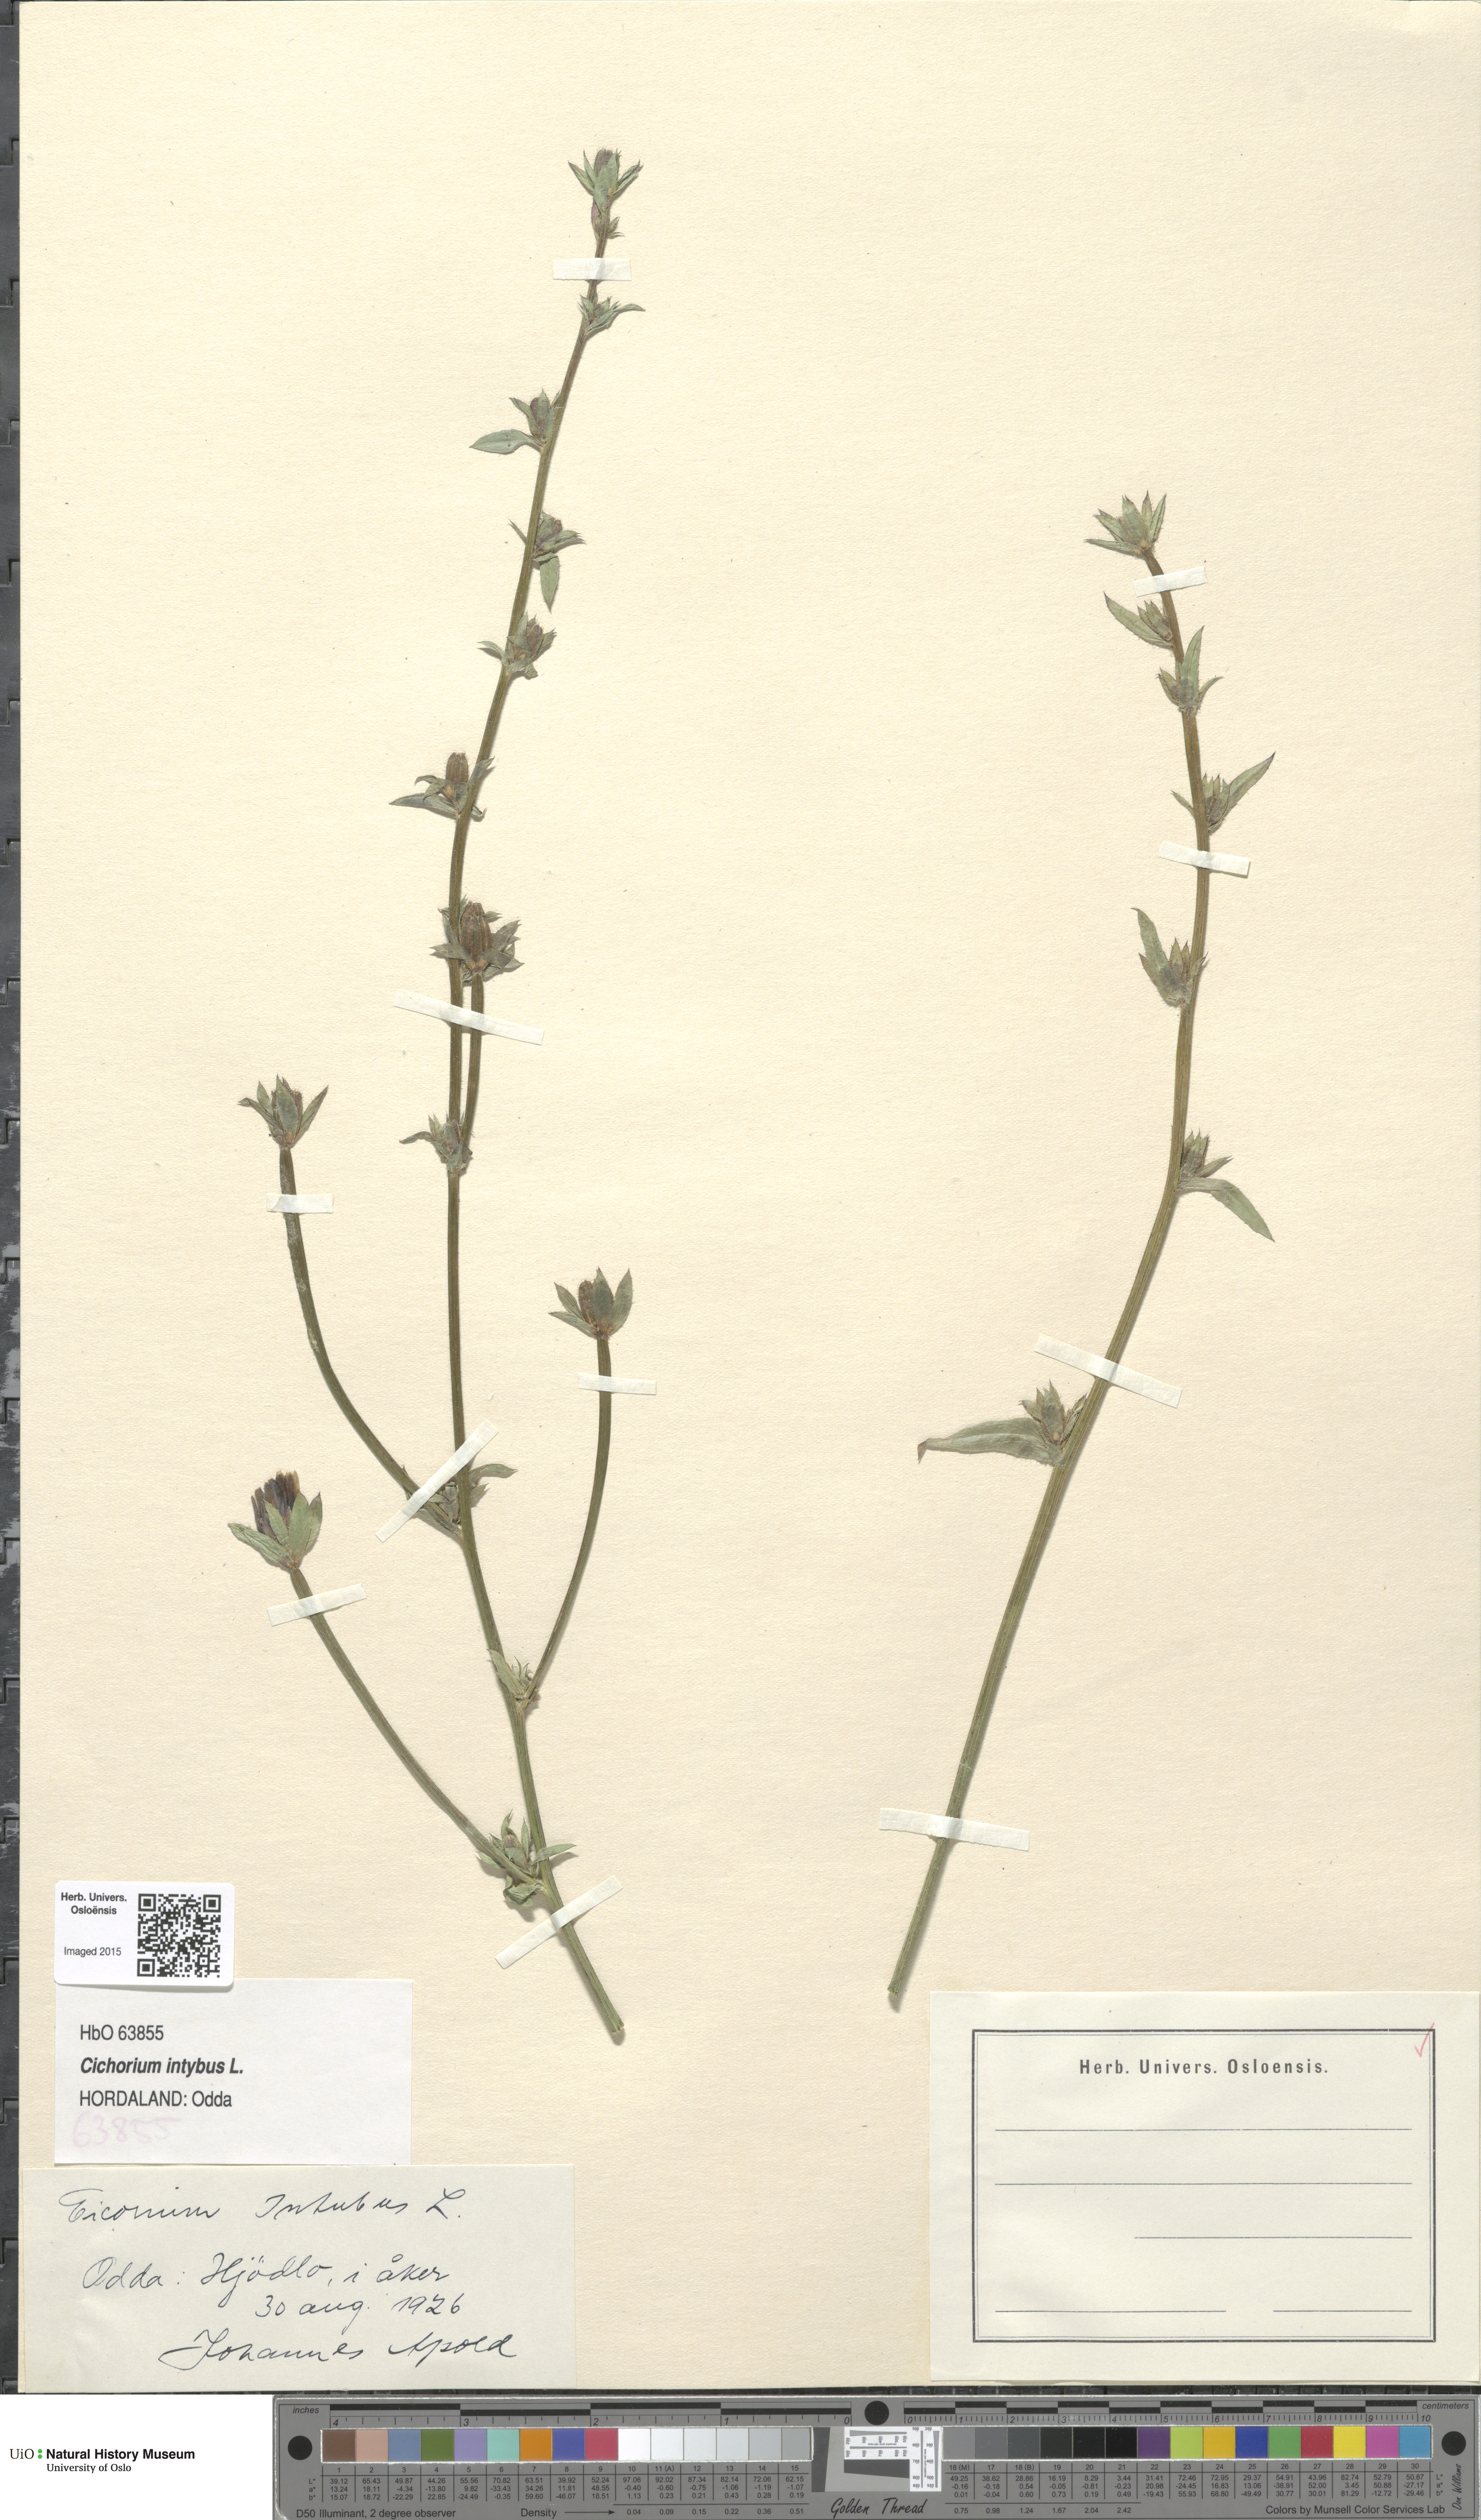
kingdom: Plantae
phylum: Tracheophyta
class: Magnoliopsida
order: Asterales
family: Asteraceae
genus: Cichorium
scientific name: Cichorium intybus
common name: Chicory
